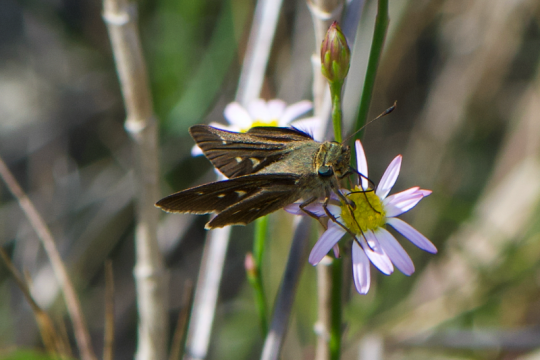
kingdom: Animalia
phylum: Arthropoda
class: Insecta
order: Lepidoptera
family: Hesperiidae
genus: Panoquina
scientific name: Panoquina panoquinoides
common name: Obscure Skipper
